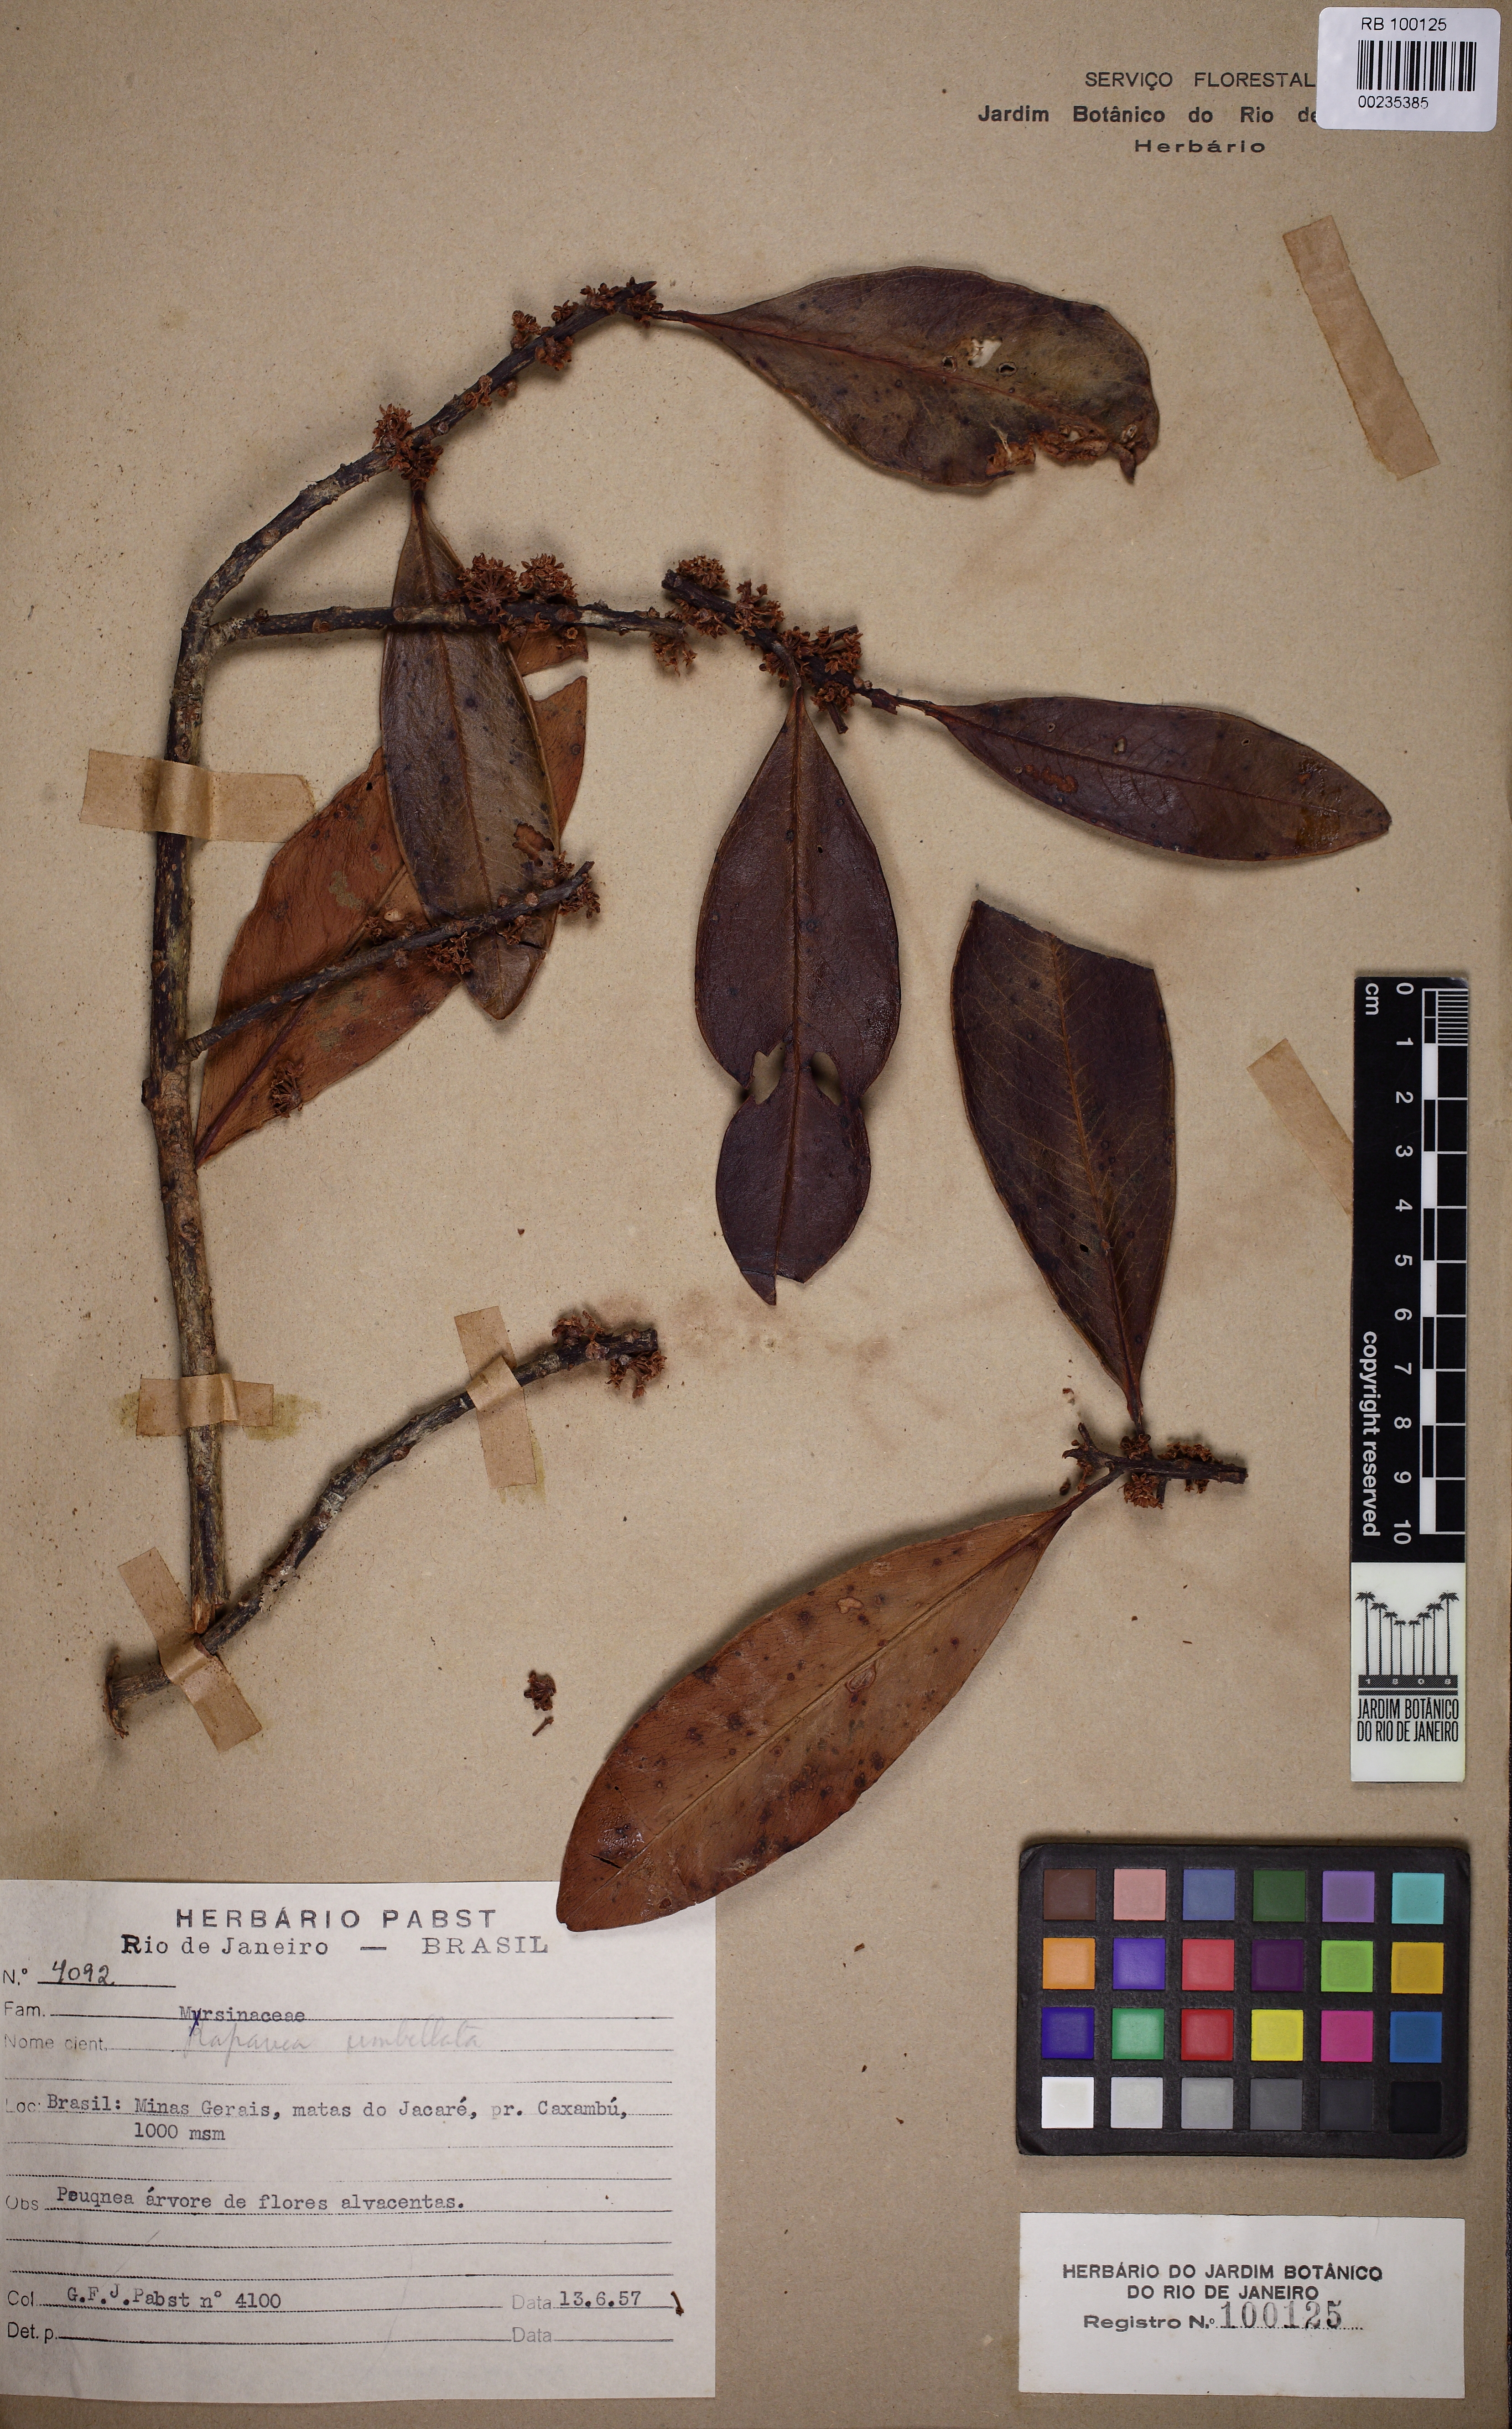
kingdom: Plantae
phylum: Tracheophyta
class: Magnoliopsida
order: Ericales
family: Primulaceae
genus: Myrsine
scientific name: Myrsine umbellata
